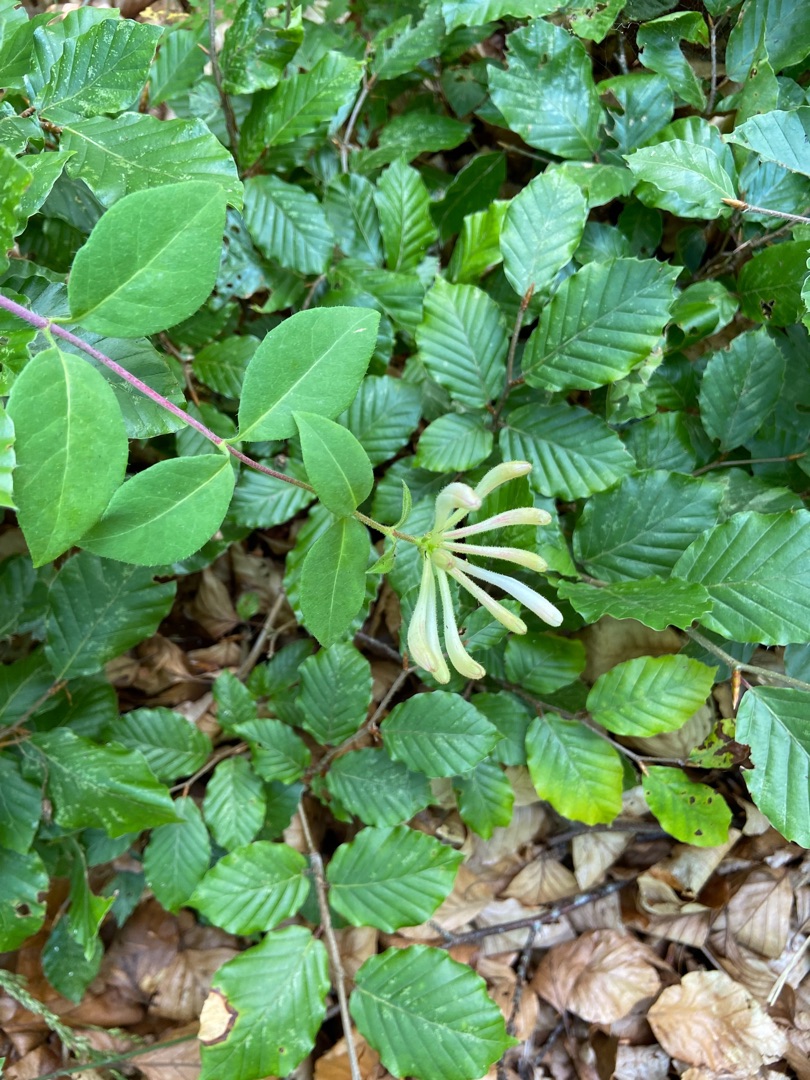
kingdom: Plantae
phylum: Tracheophyta
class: Magnoliopsida
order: Dipsacales
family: Caprifoliaceae
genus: Lonicera
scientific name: Lonicera periclymenum
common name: Almindelig gedeblad
